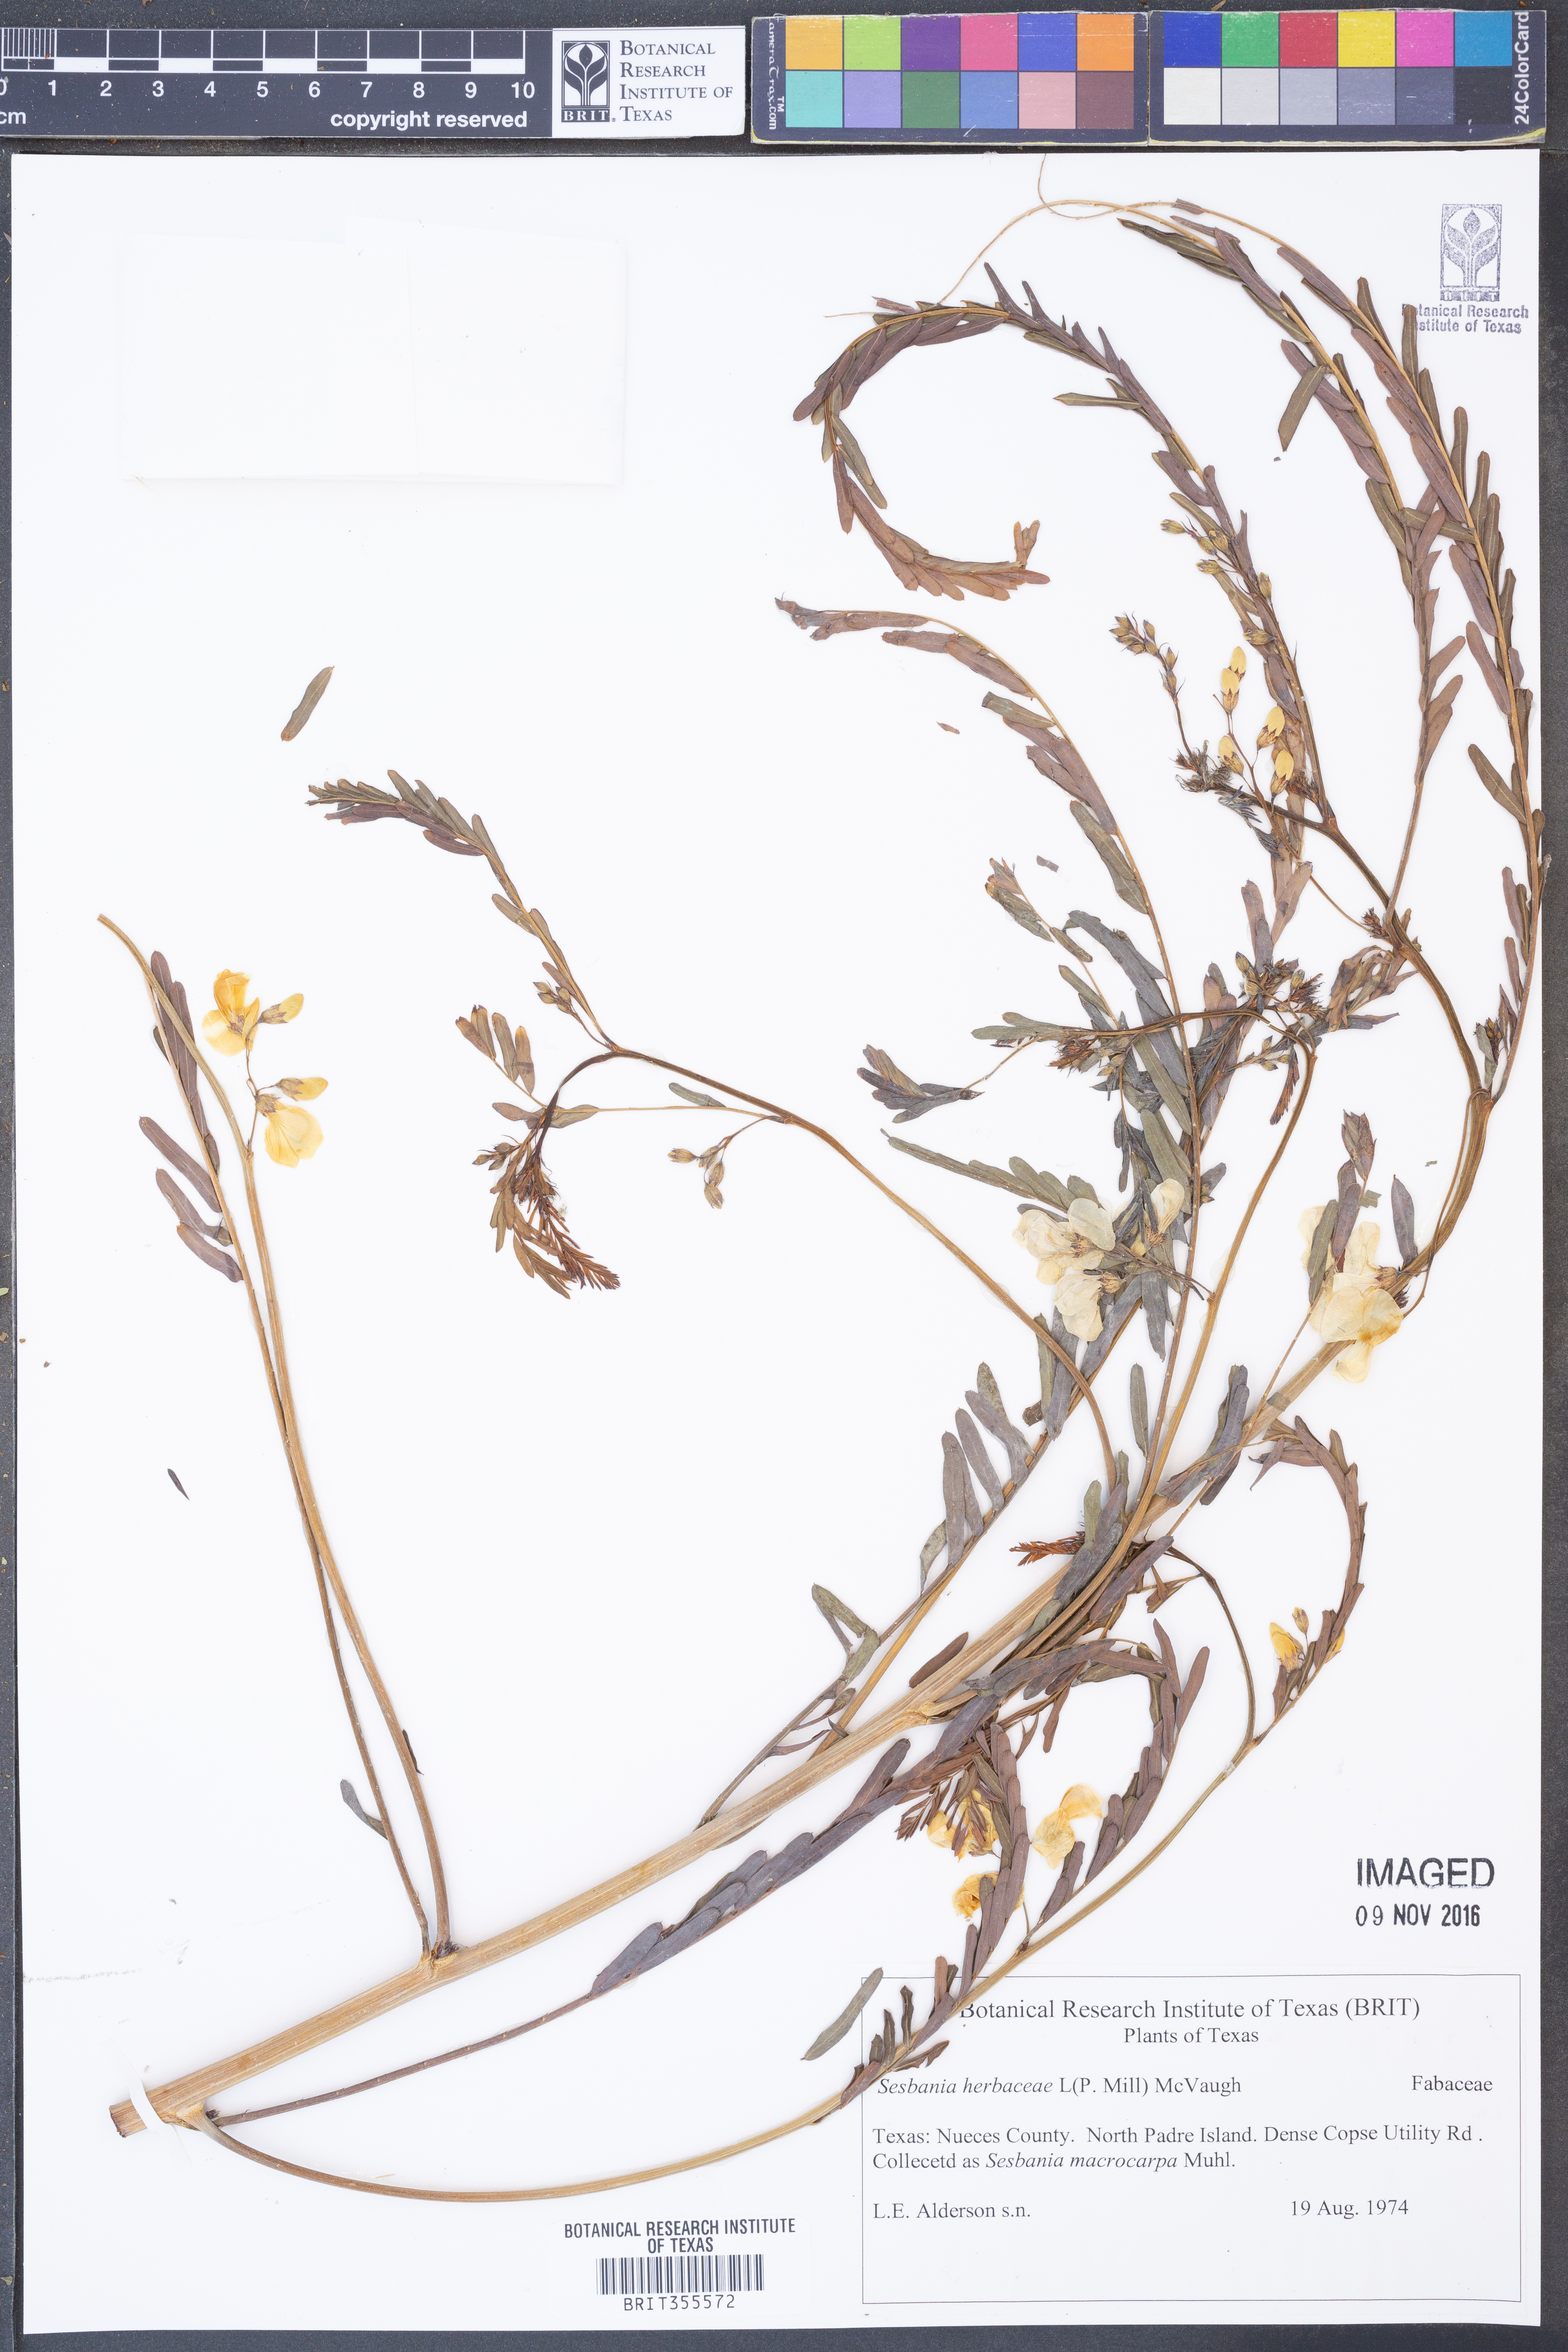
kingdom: Plantae
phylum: Tracheophyta
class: Magnoliopsida
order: Fabales
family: Fabaceae
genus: Sesbania
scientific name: Sesbania herbacea
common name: Bigpod sesbania
